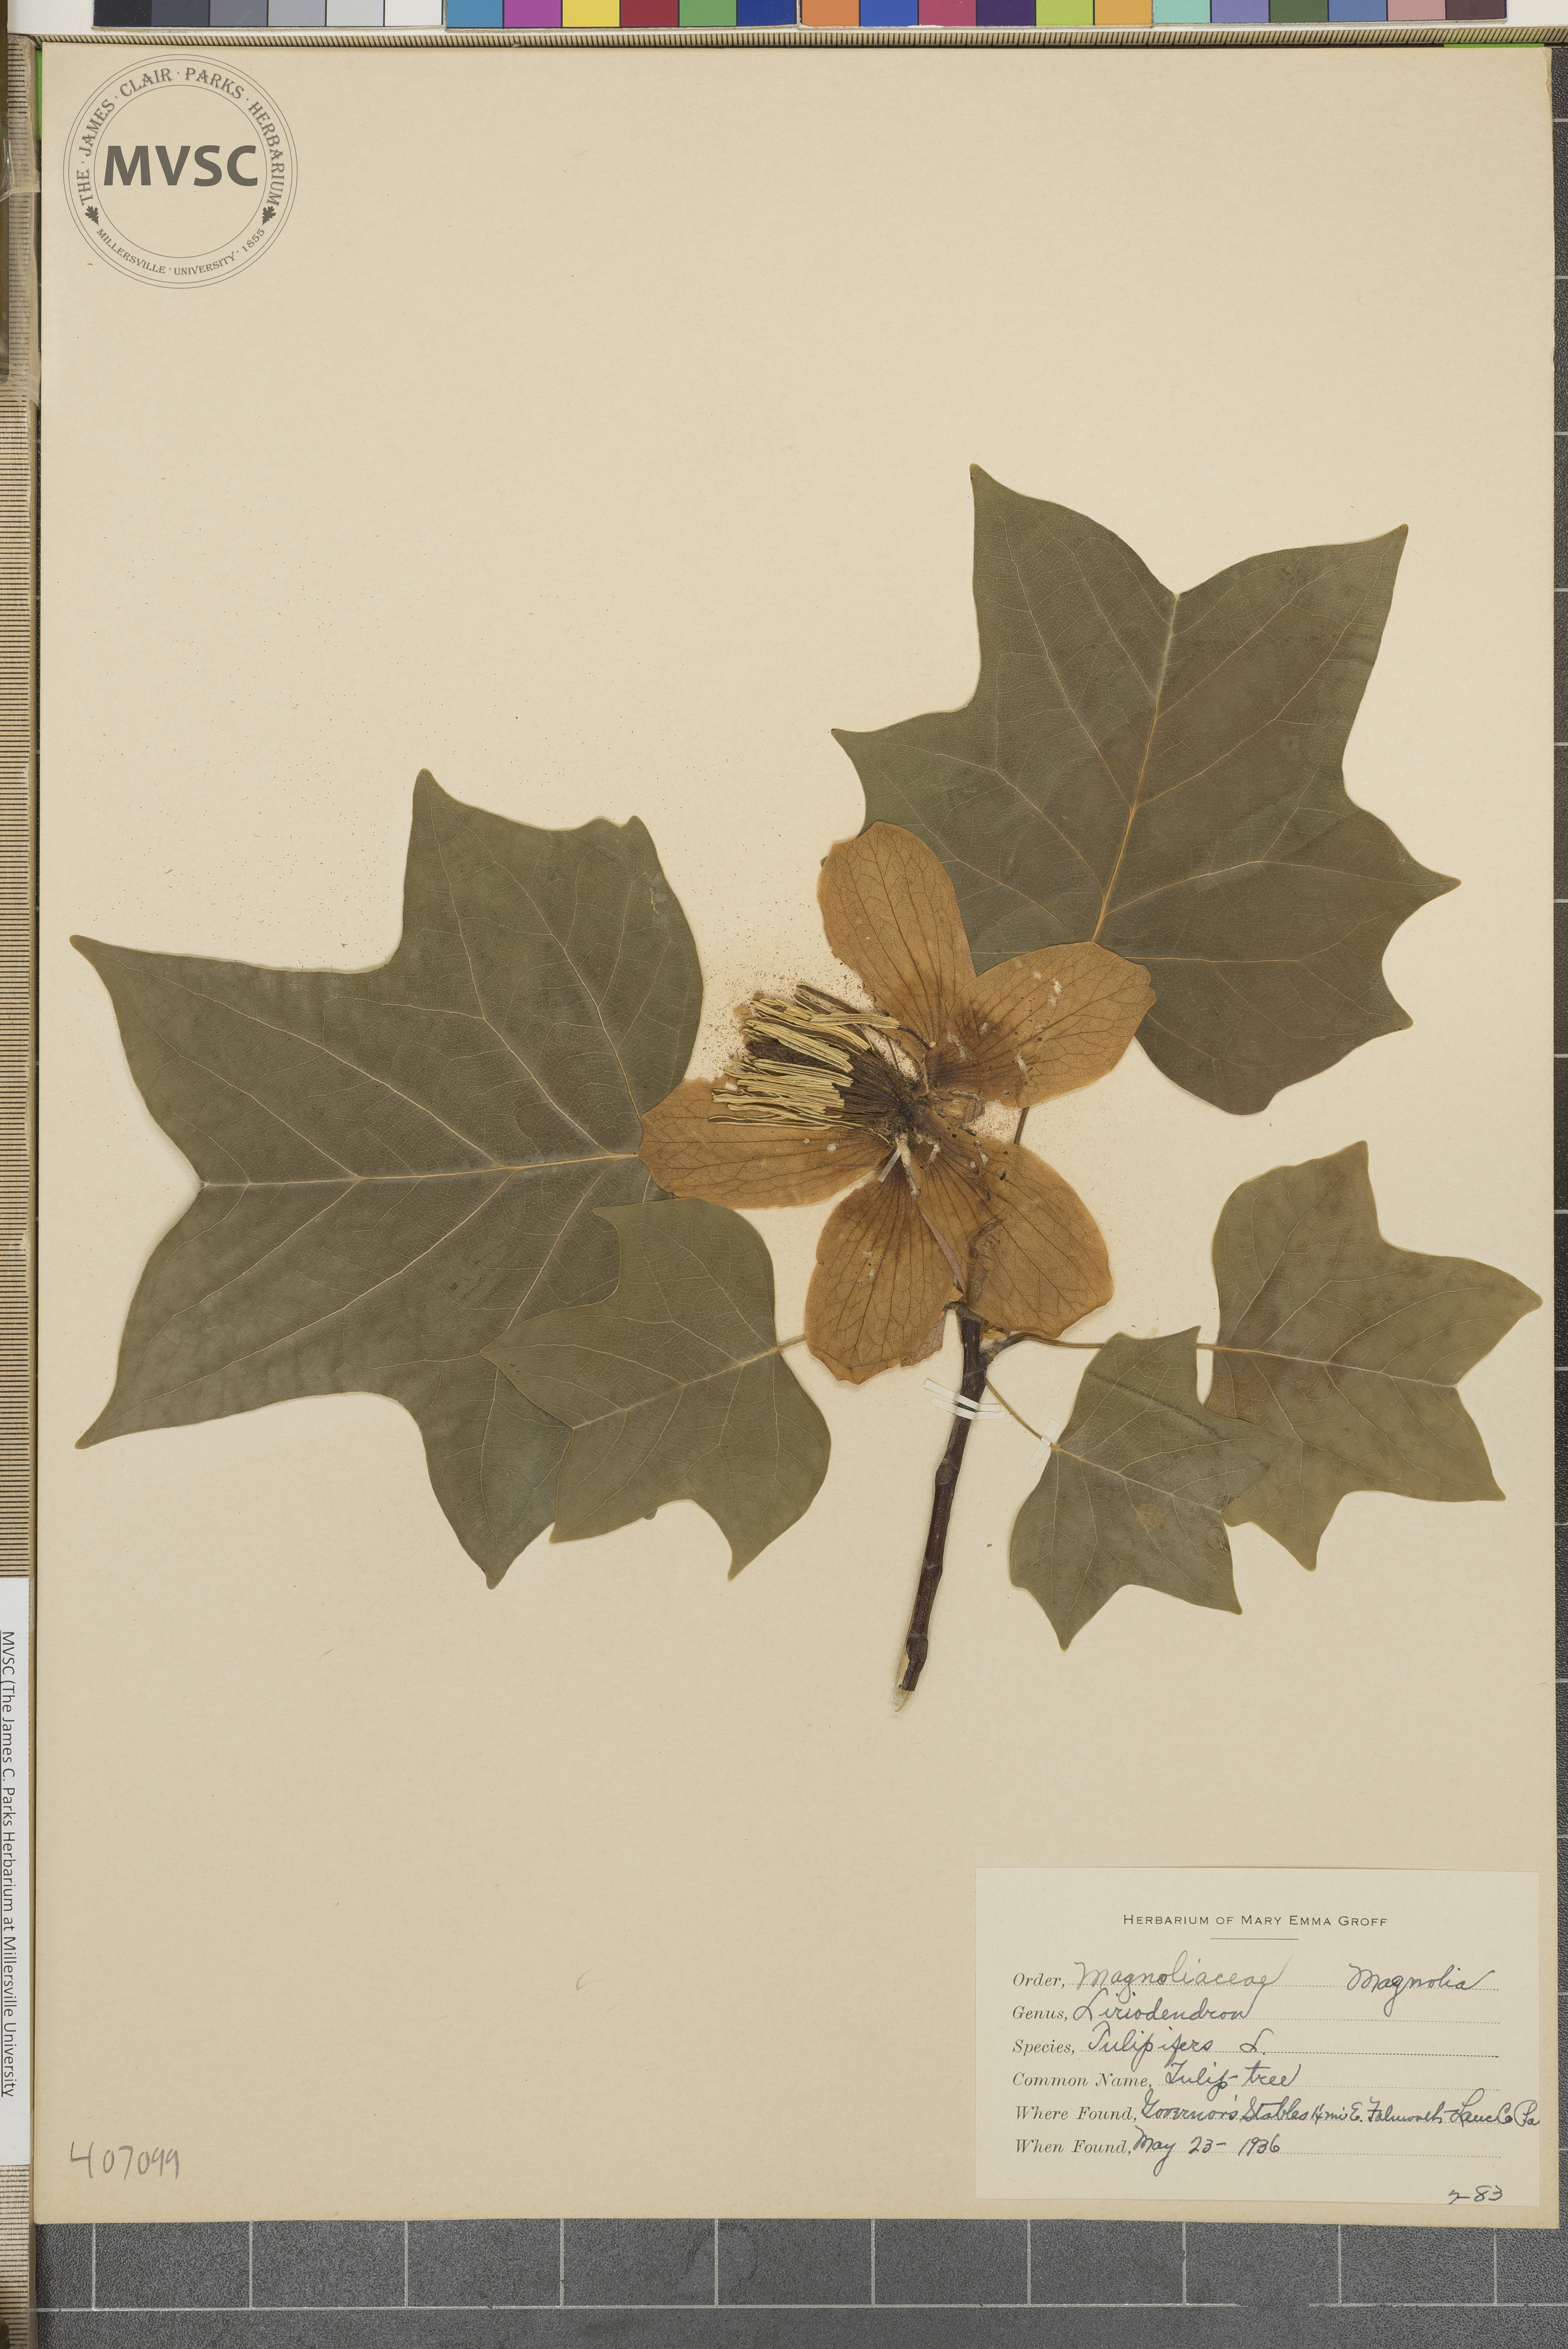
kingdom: Plantae
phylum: Tracheophyta
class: Magnoliopsida
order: Magnoliales
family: Magnoliaceae
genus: Liriodendron
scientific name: Liriodendron tulipifera
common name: tulip-tree
